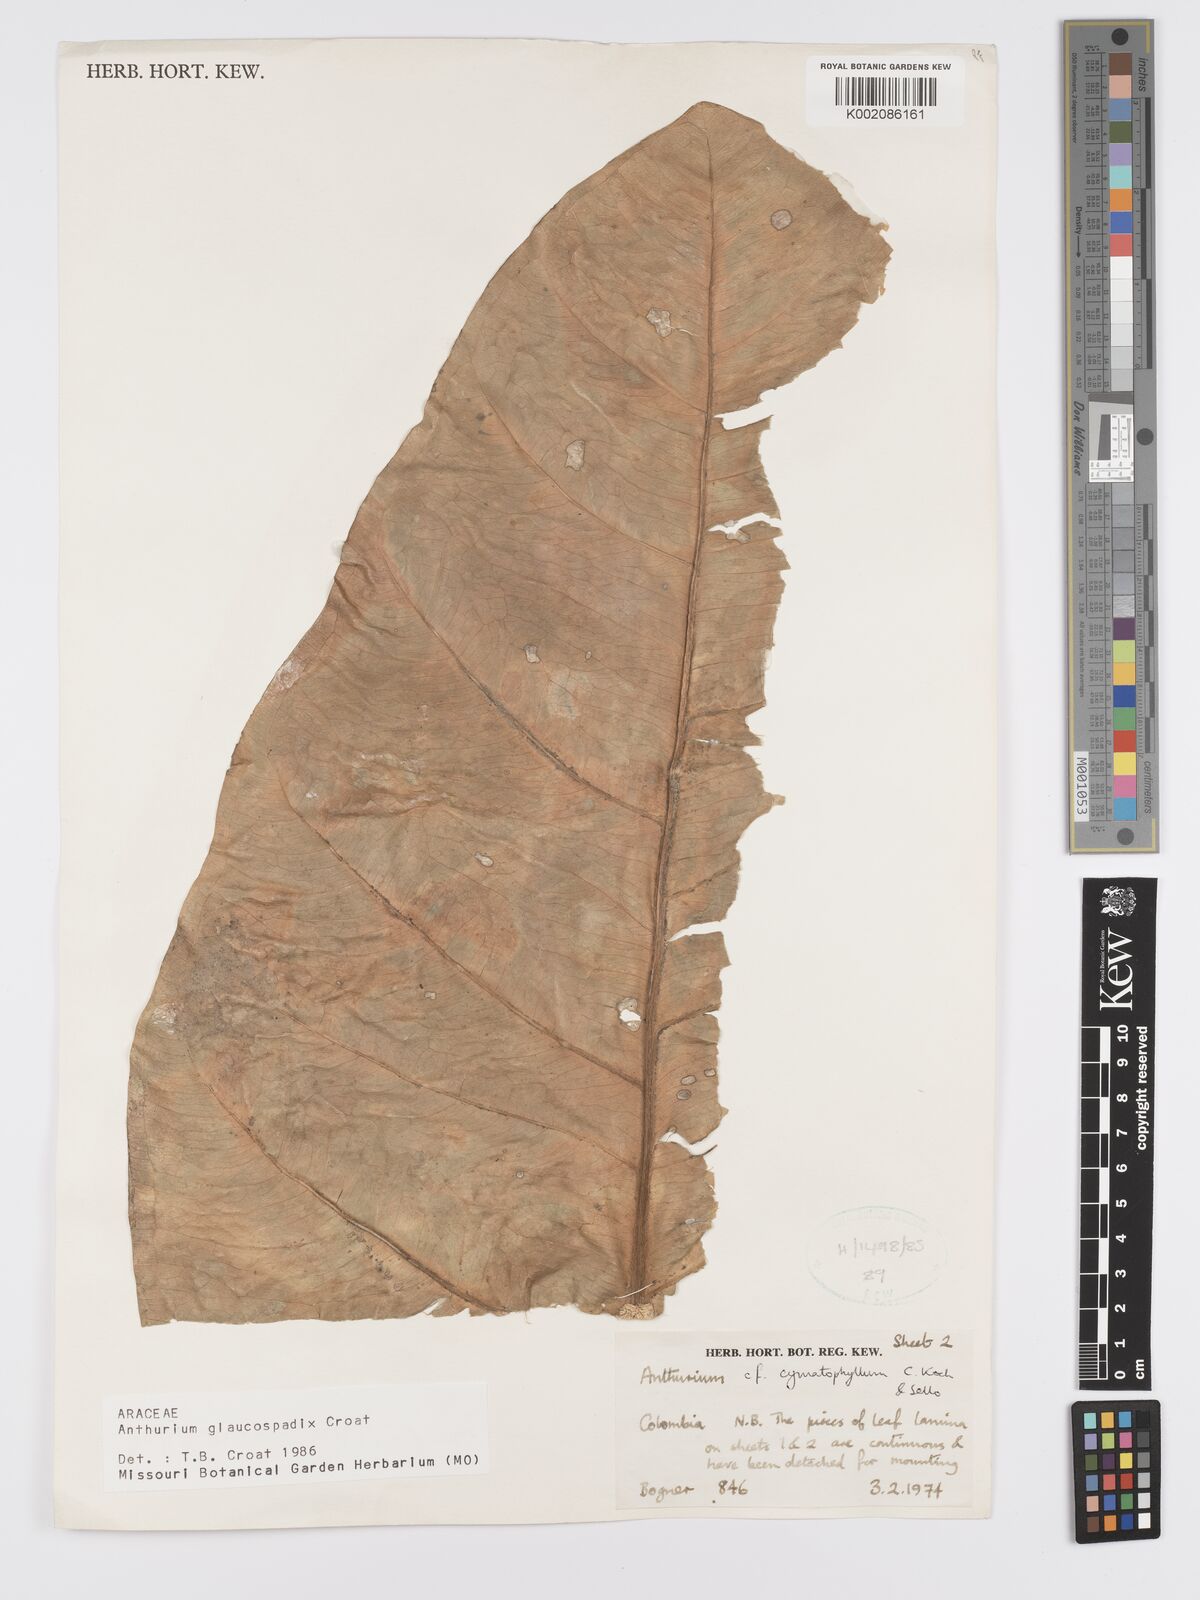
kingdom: Plantae
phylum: Tracheophyta
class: Liliopsida
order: Alismatales
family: Araceae
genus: Anthurium
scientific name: Anthurium glaucospadix
